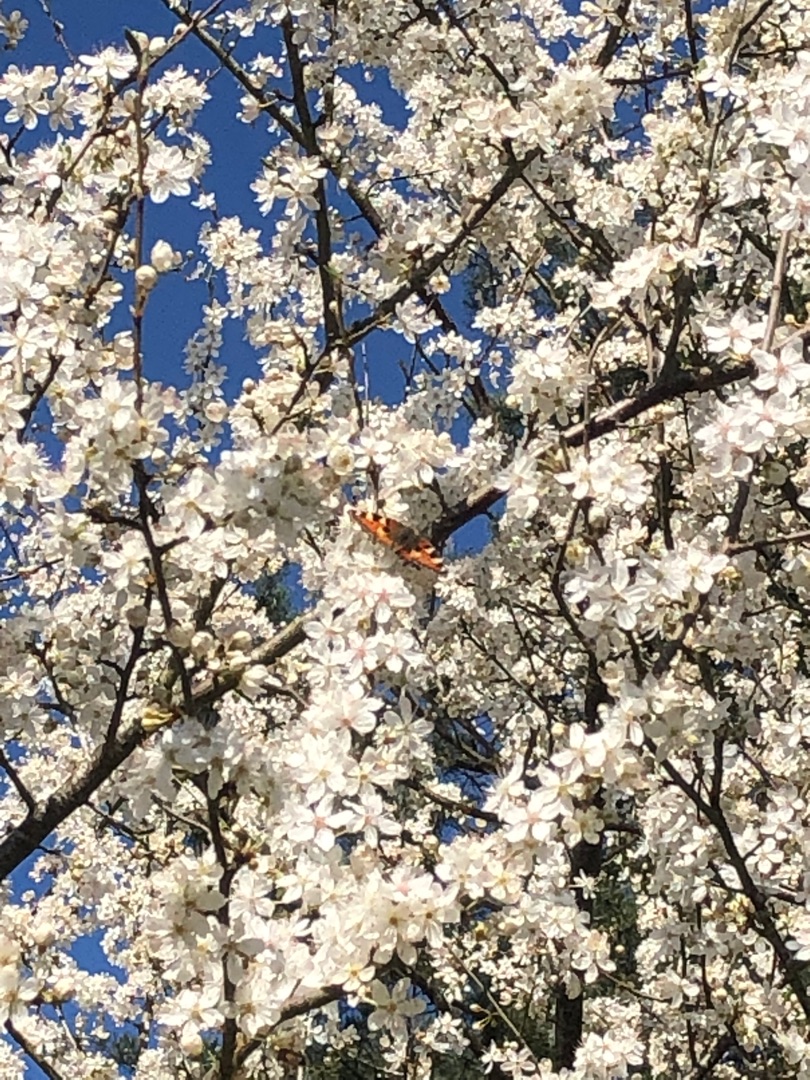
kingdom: Animalia
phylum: Arthropoda
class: Insecta
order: Lepidoptera
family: Nymphalidae
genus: Aglais
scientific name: Aglais urticae
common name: Nældens takvinge
